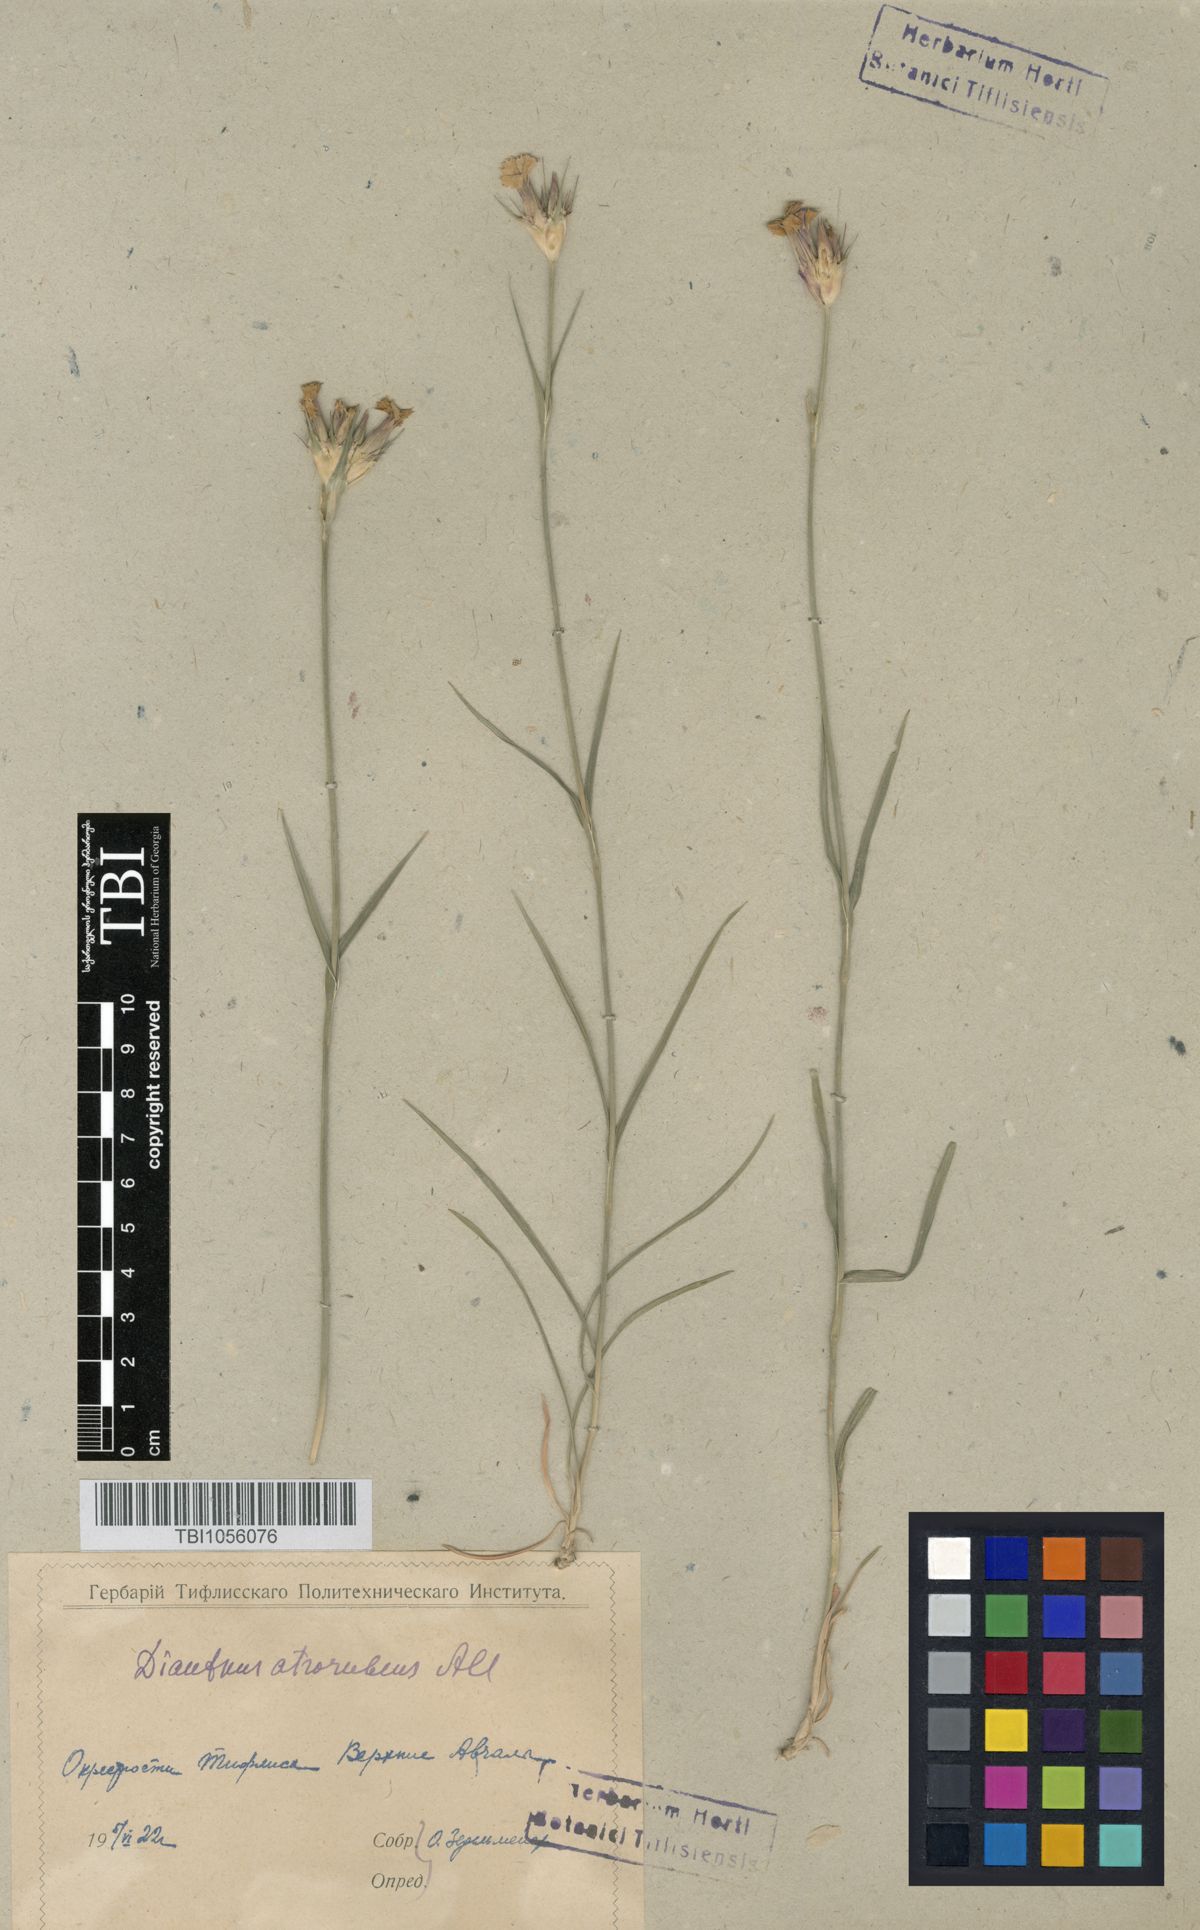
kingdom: Plantae
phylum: Tracheophyta
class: Magnoliopsida
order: Caryophyllales
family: Caryophyllaceae
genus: Dianthus
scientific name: Dianthus subulosus
